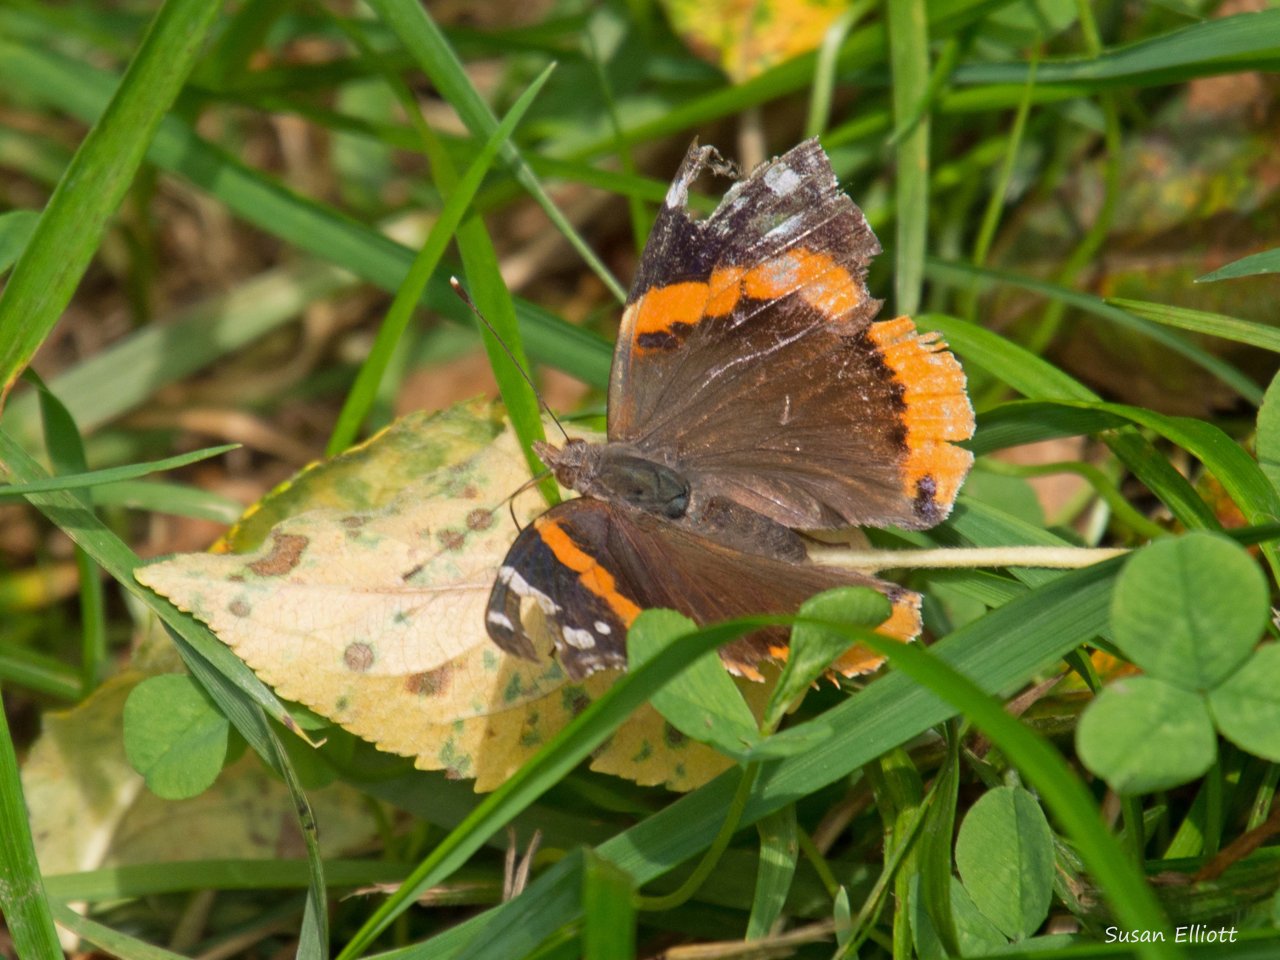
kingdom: Animalia
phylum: Arthropoda
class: Insecta
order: Lepidoptera
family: Nymphalidae
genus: Vanessa
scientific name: Vanessa atalanta
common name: Red Admiral
